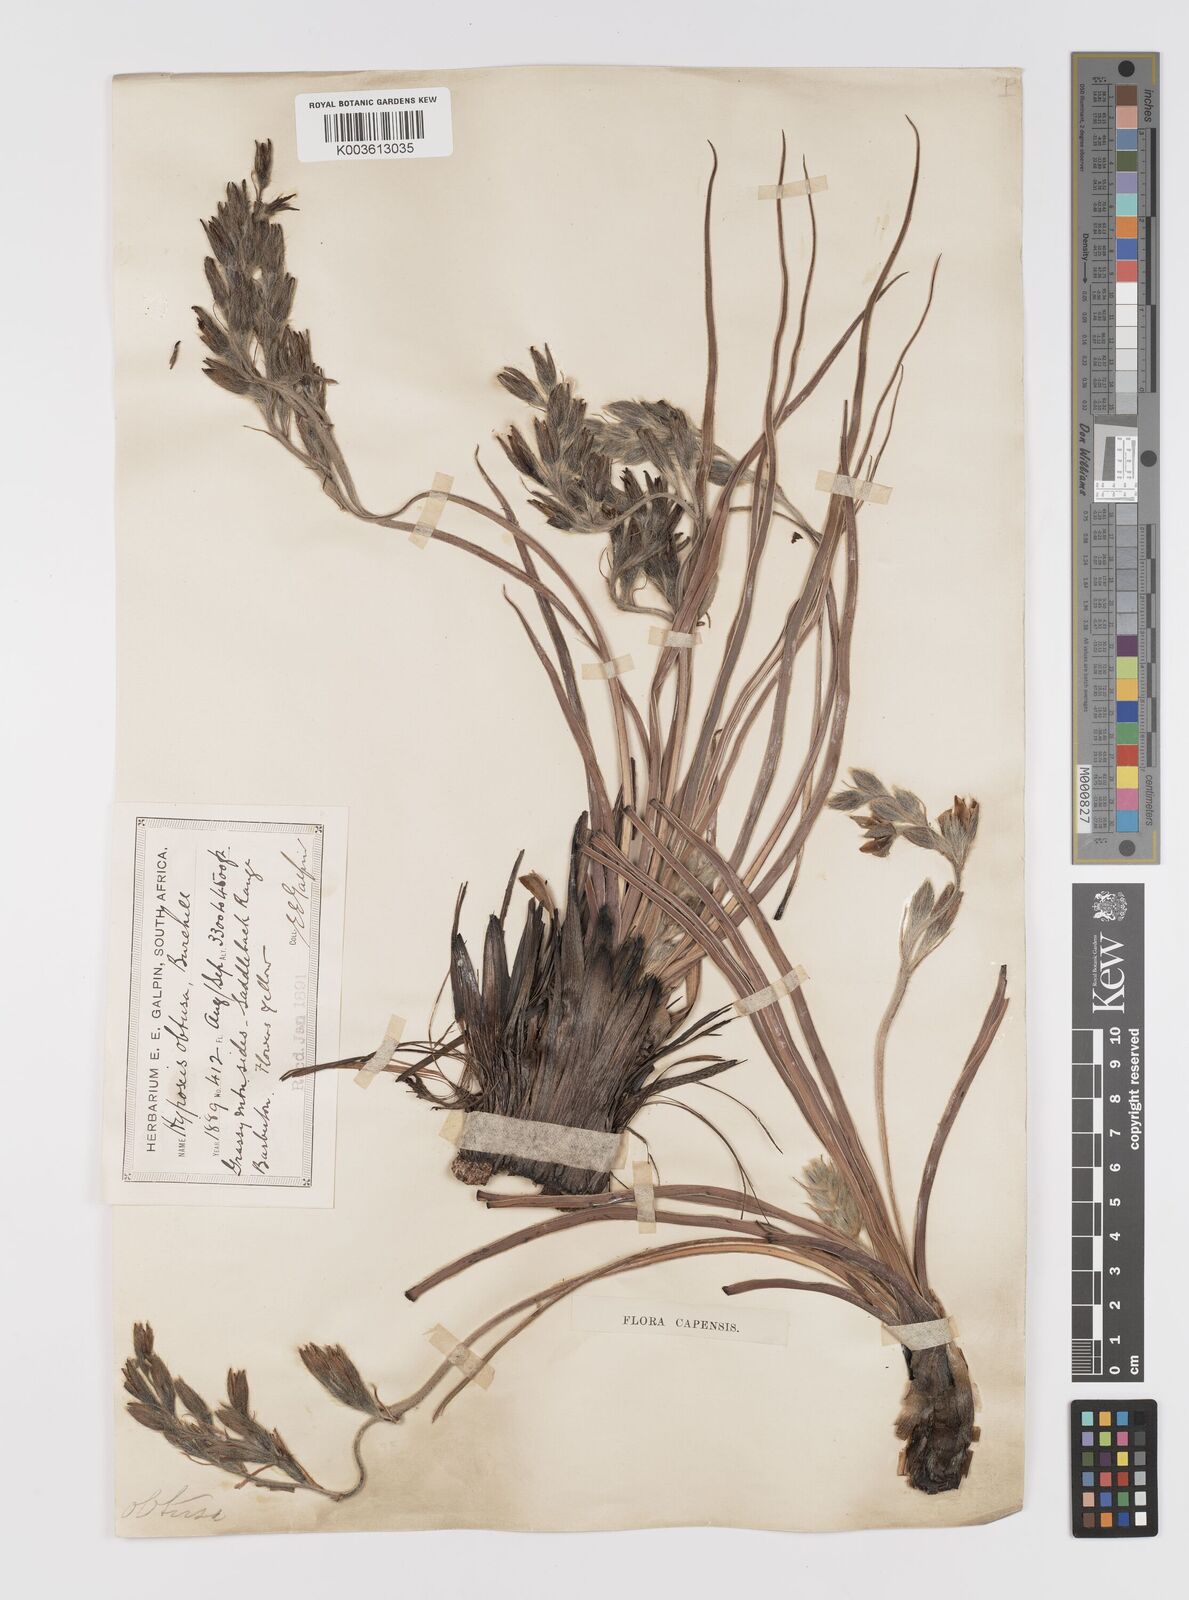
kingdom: Plantae
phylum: Tracheophyta
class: Liliopsida
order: Asparagales
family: Hypoxidaceae
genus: Hypoxis
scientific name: Hypoxis obtusa
